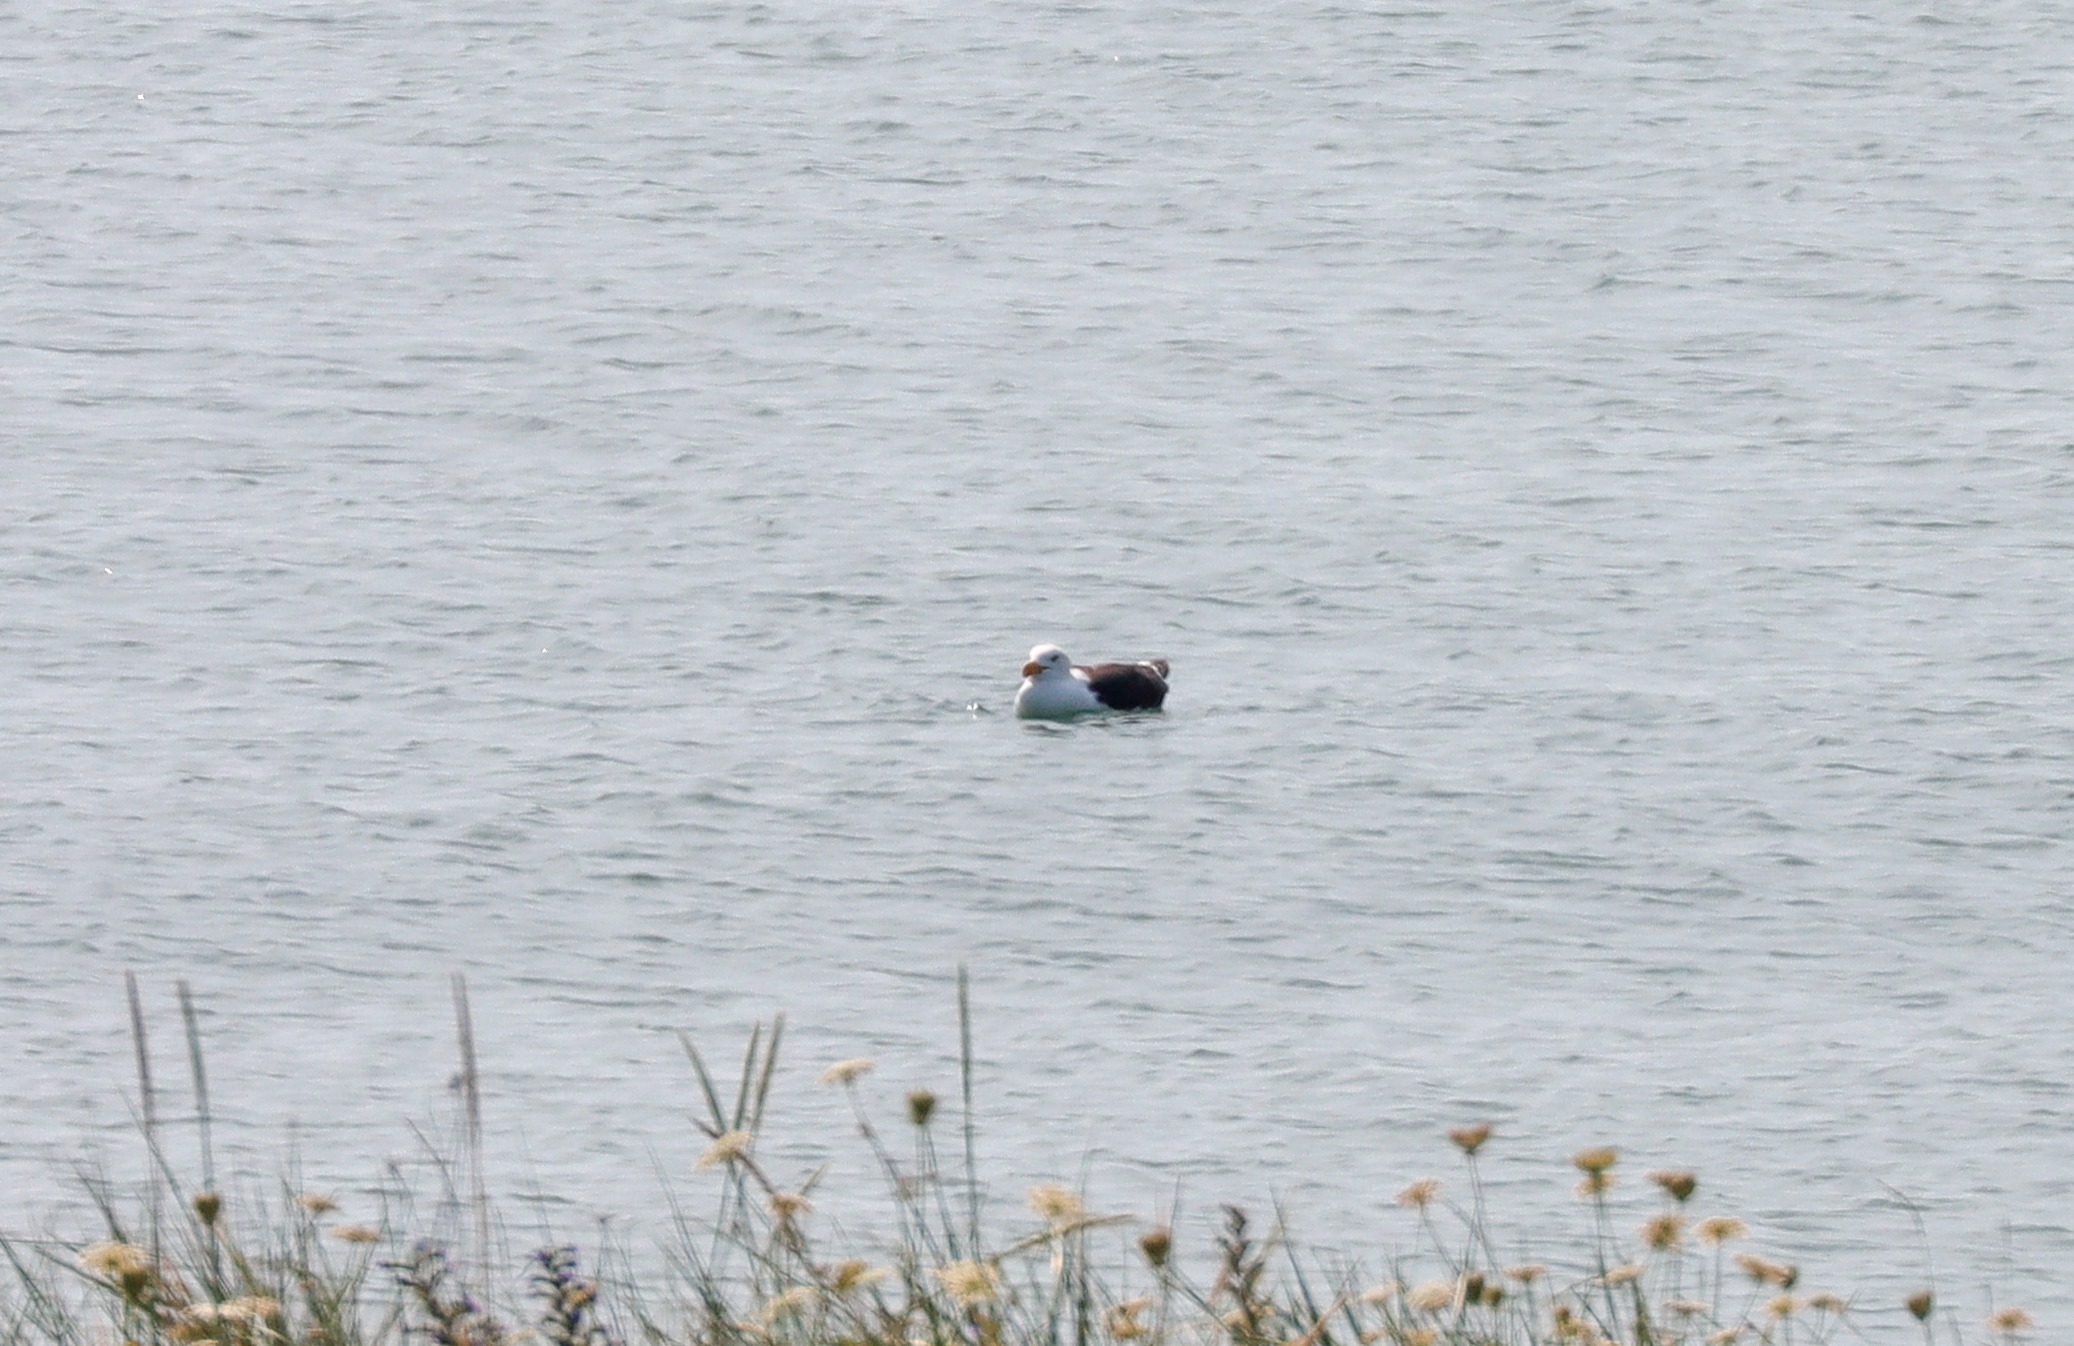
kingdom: Animalia
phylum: Chordata
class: Aves
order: Charadriiformes
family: Laridae
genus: Larus
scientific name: Larus marinus
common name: Svartbag
